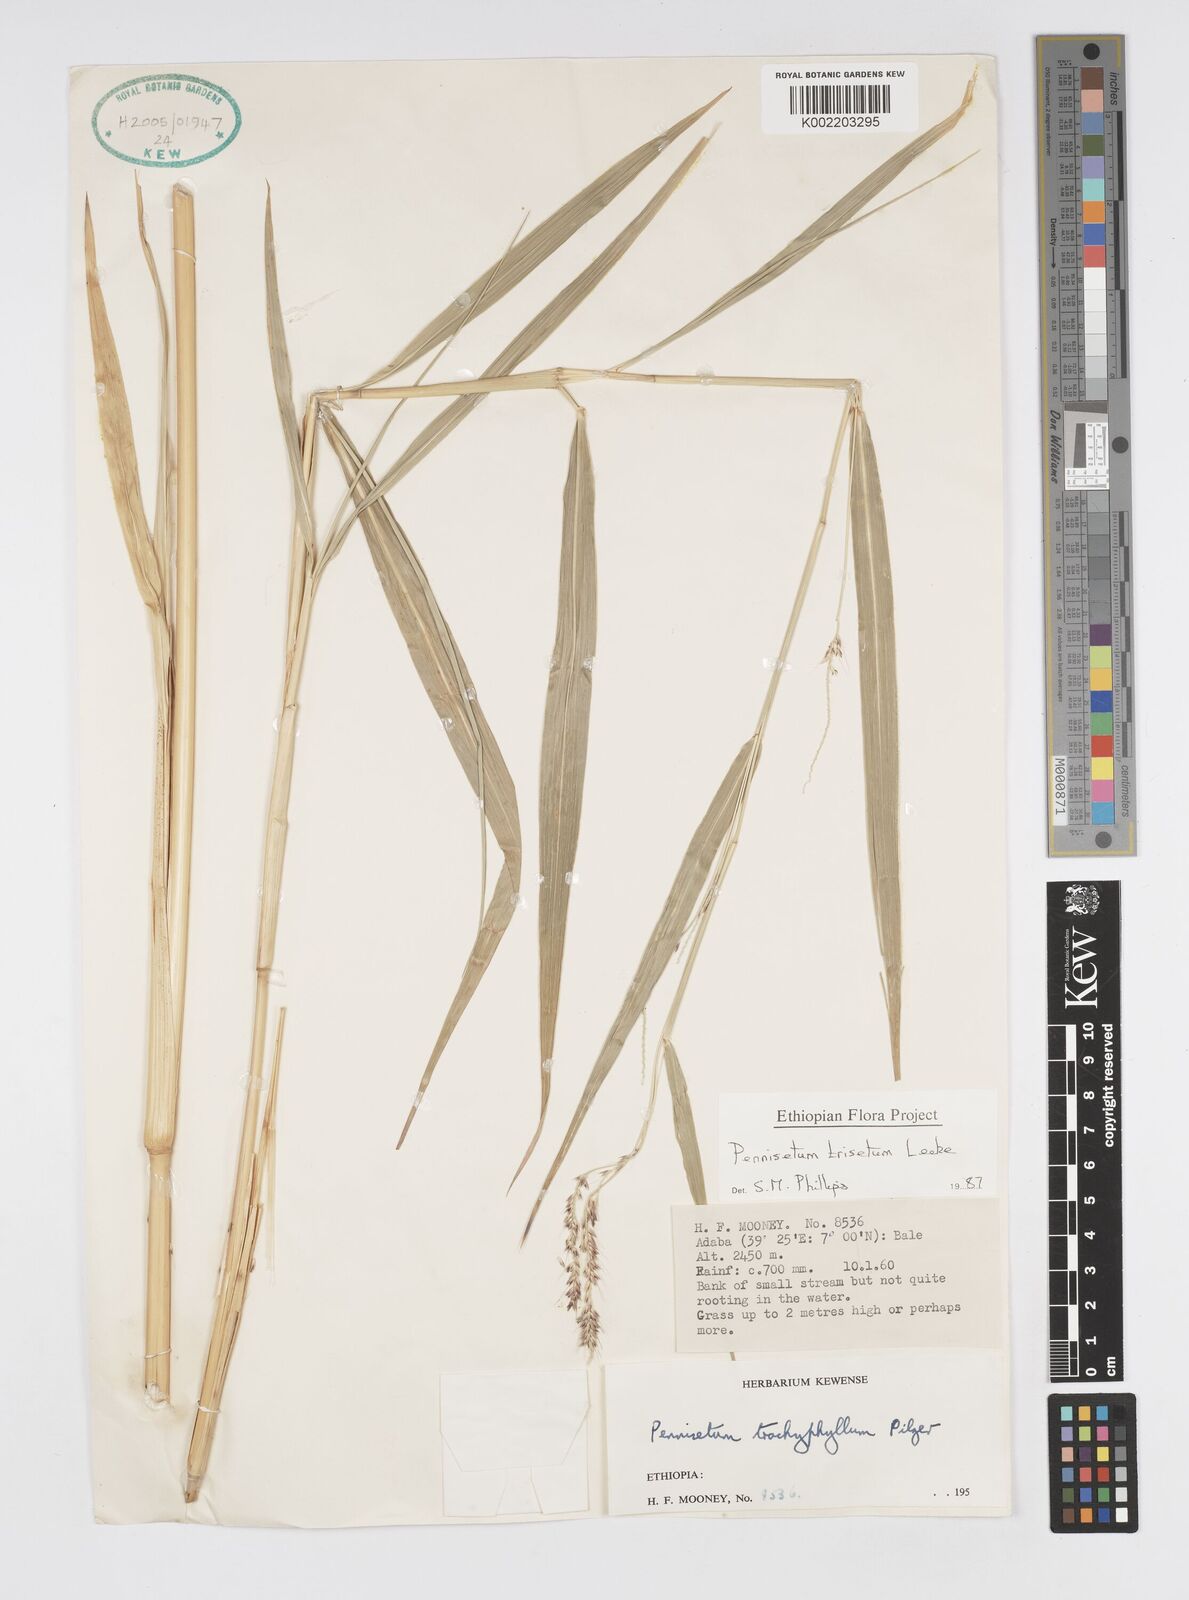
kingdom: Plantae
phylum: Tracheophyta
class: Liliopsida
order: Poales
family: Poaceae
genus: Cenchrus
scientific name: Cenchrus trisetus
